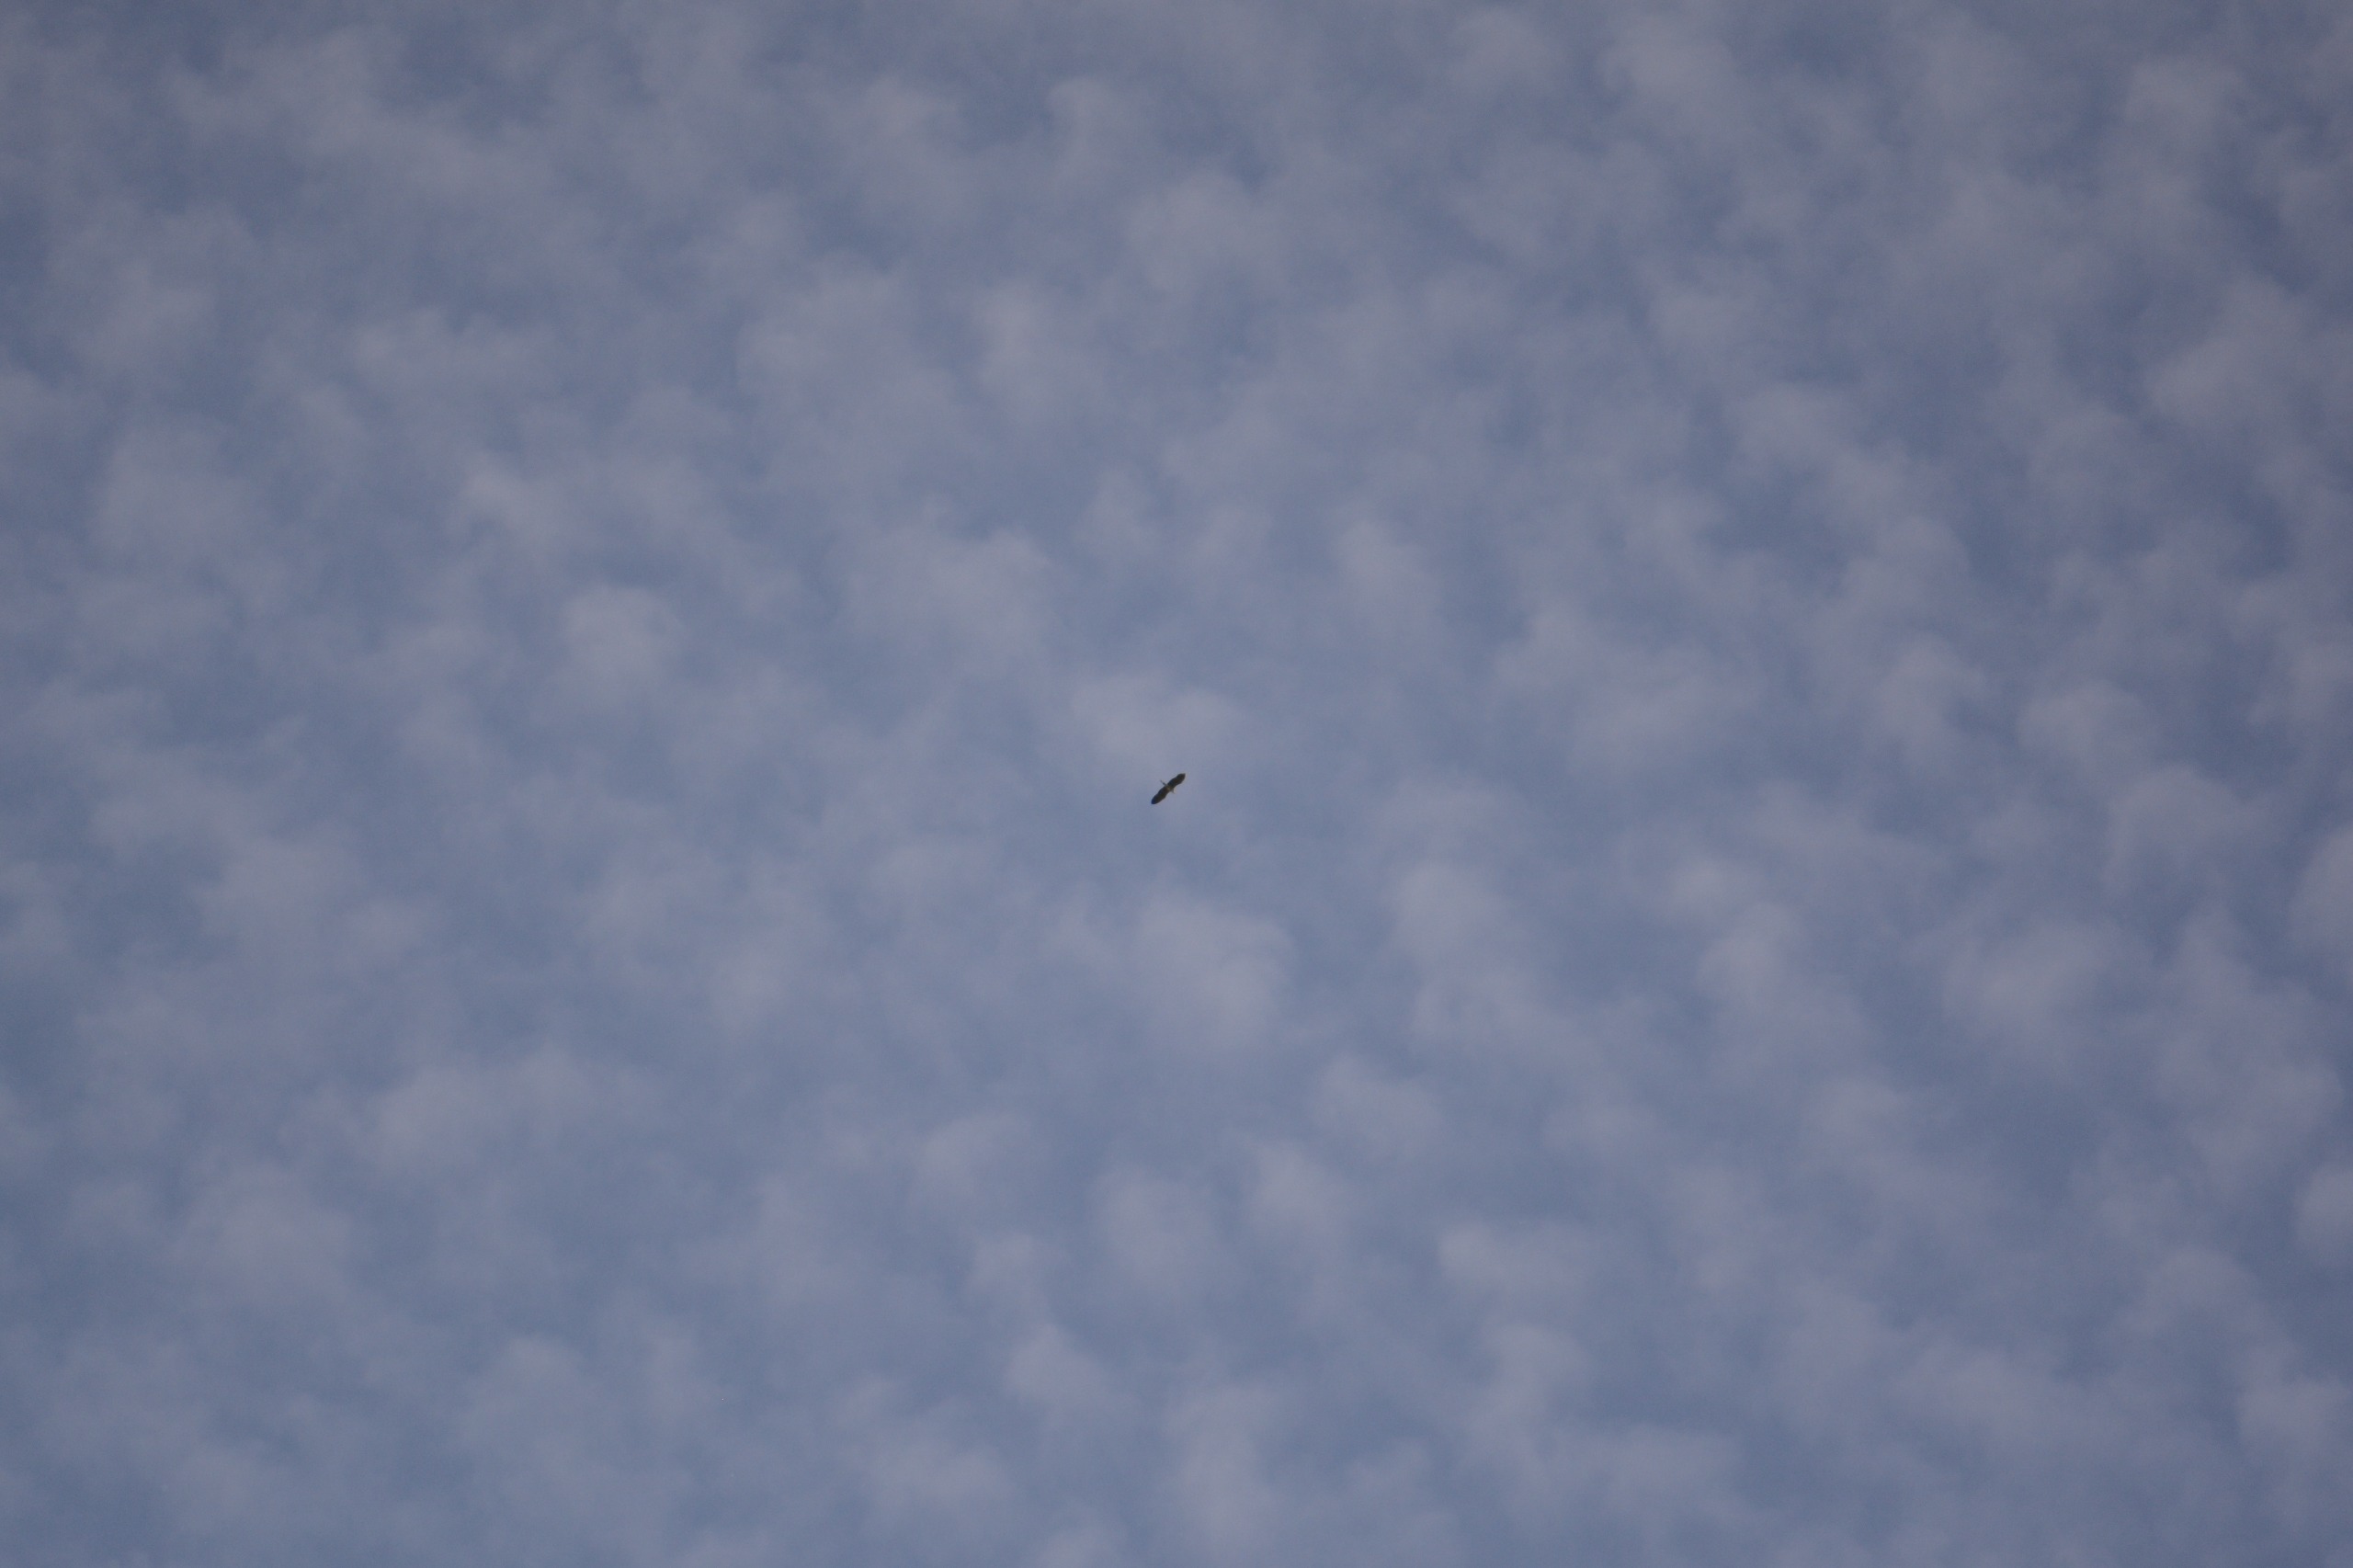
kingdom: Animalia
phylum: Chordata
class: Aves
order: Pelecaniformes
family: Ardeidae
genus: Ardea
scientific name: Ardea cinerea
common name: Fiskehejre
